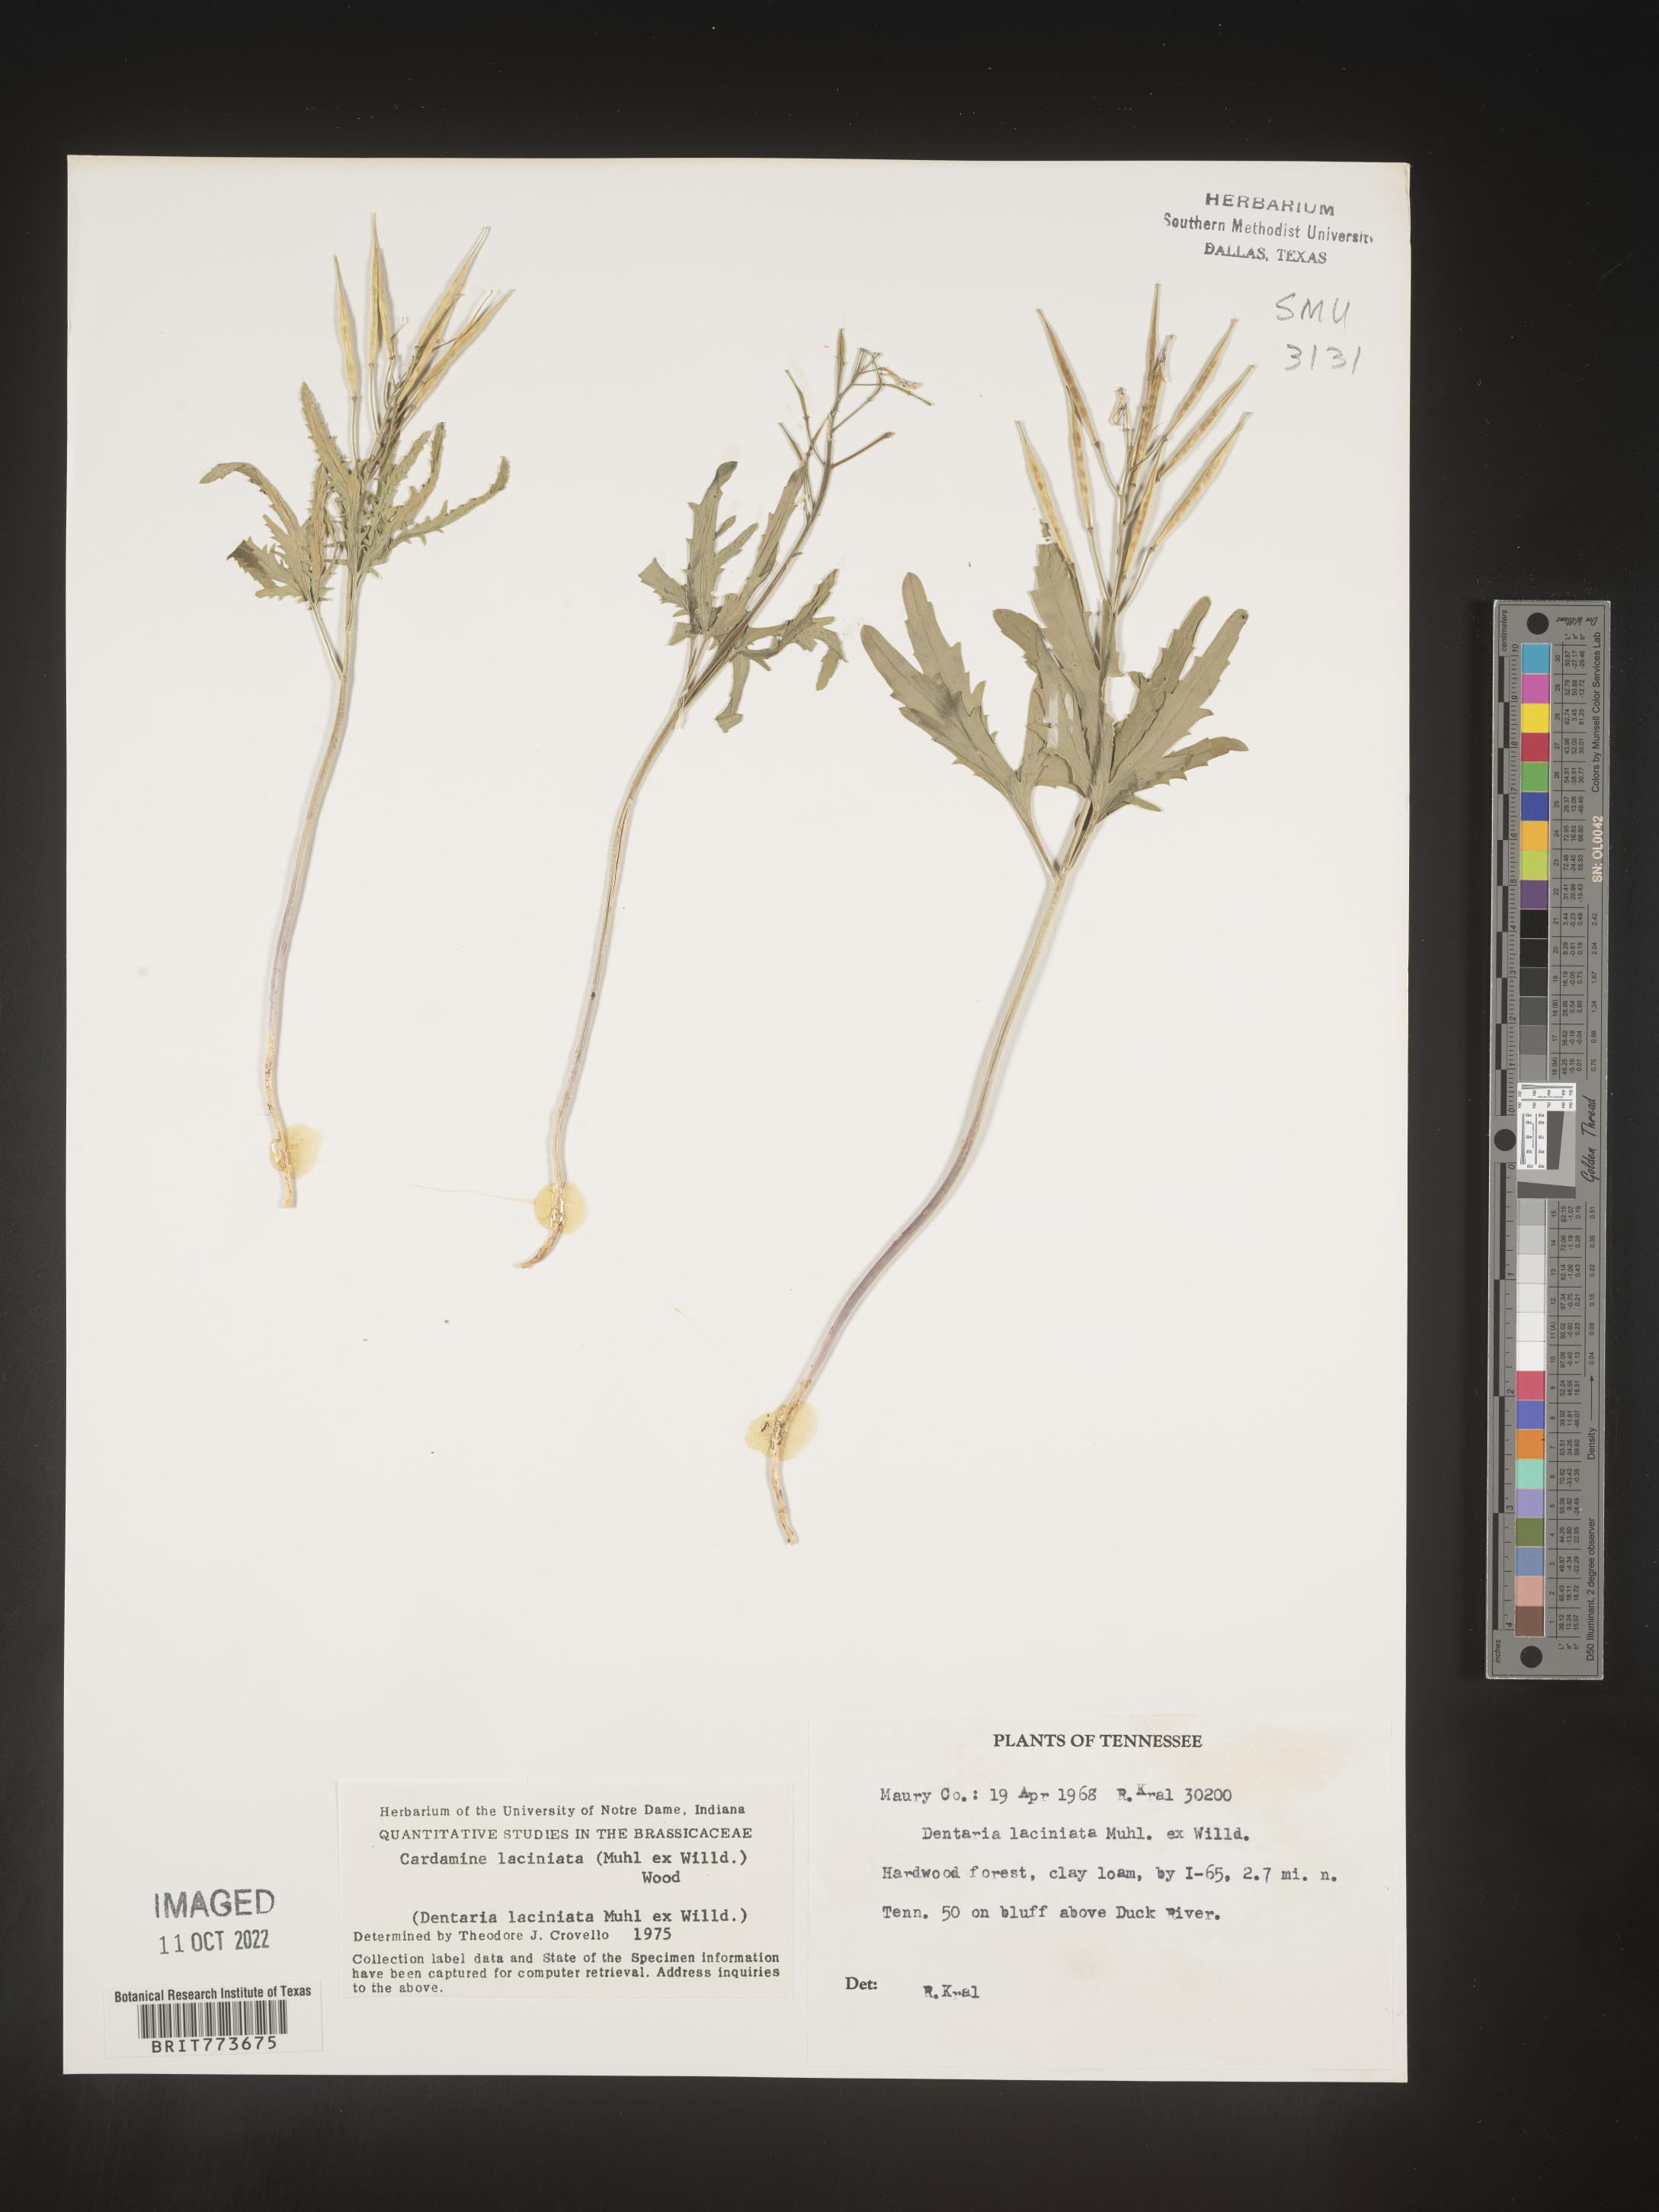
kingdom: Plantae
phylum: Tracheophyta
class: Magnoliopsida
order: Brassicales
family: Brassicaceae
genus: Rorippa
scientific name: Rorippa laciniata
